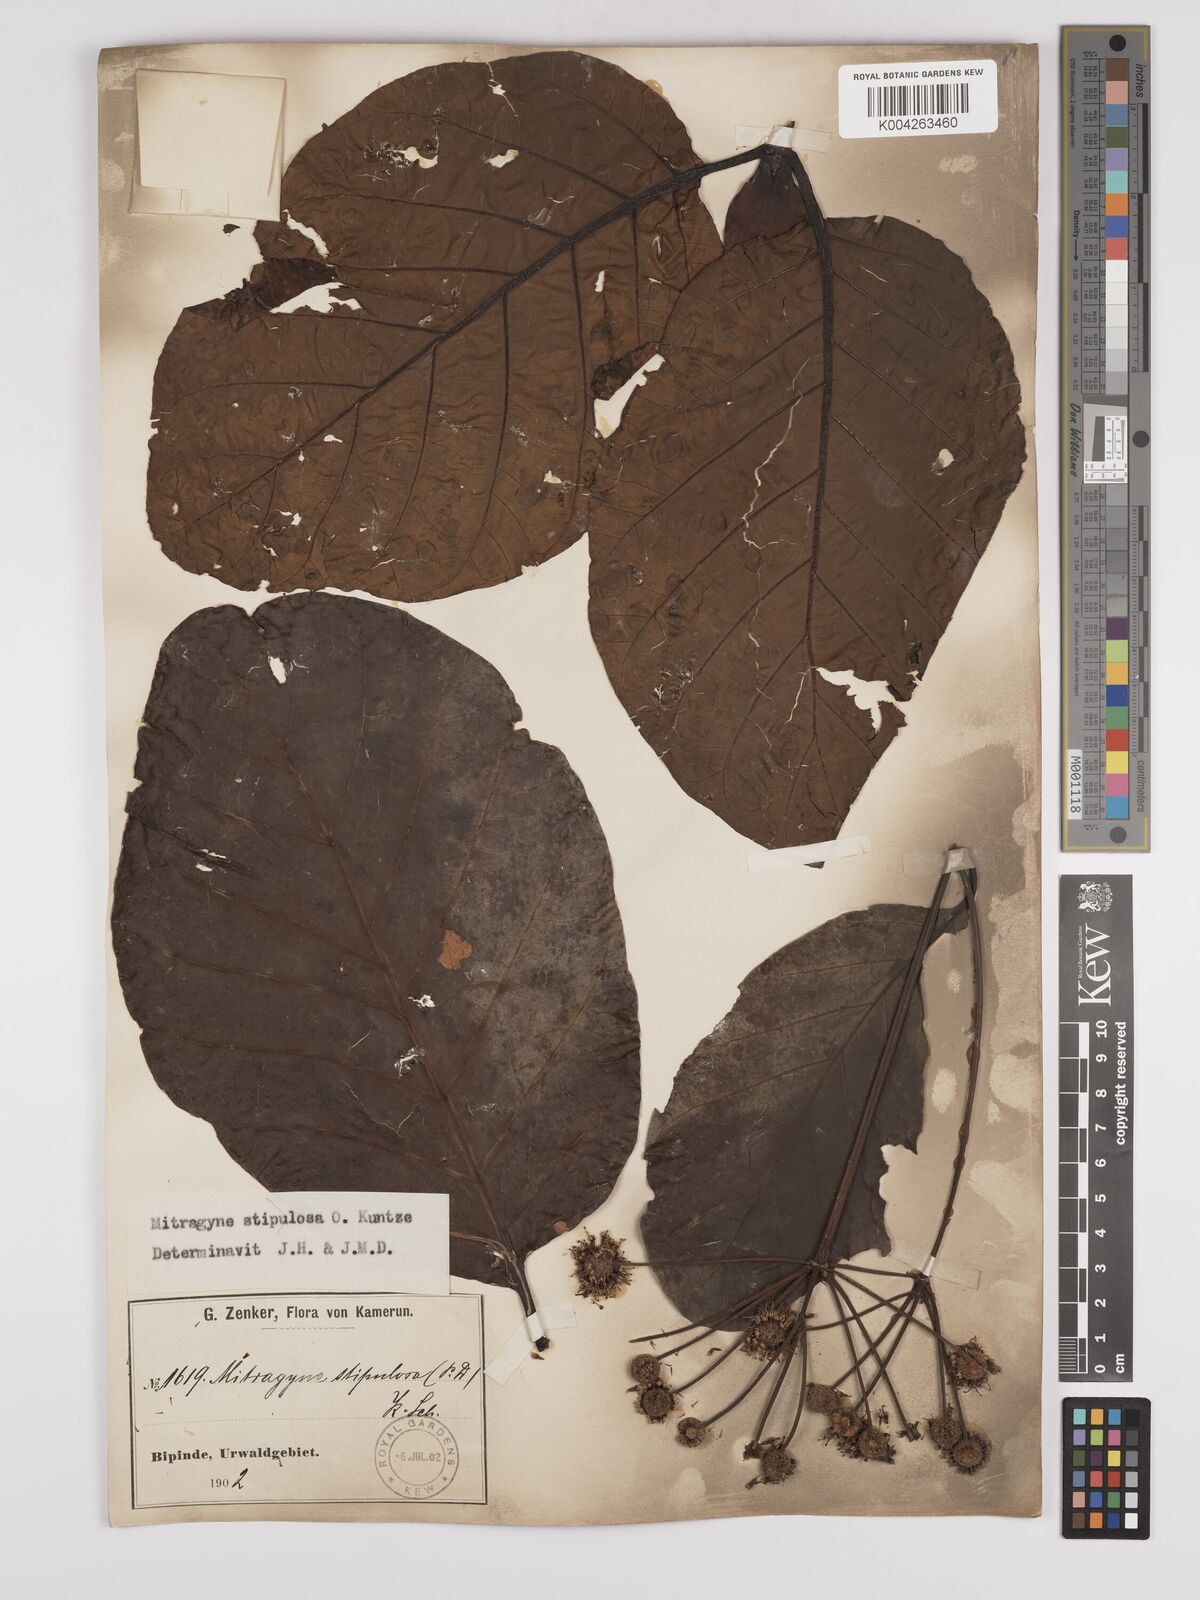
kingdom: Plantae
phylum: Tracheophyta
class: Magnoliopsida
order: Gentianales
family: Rubiaceae
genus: Mitragyna
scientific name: Mitragyna stipulosa
